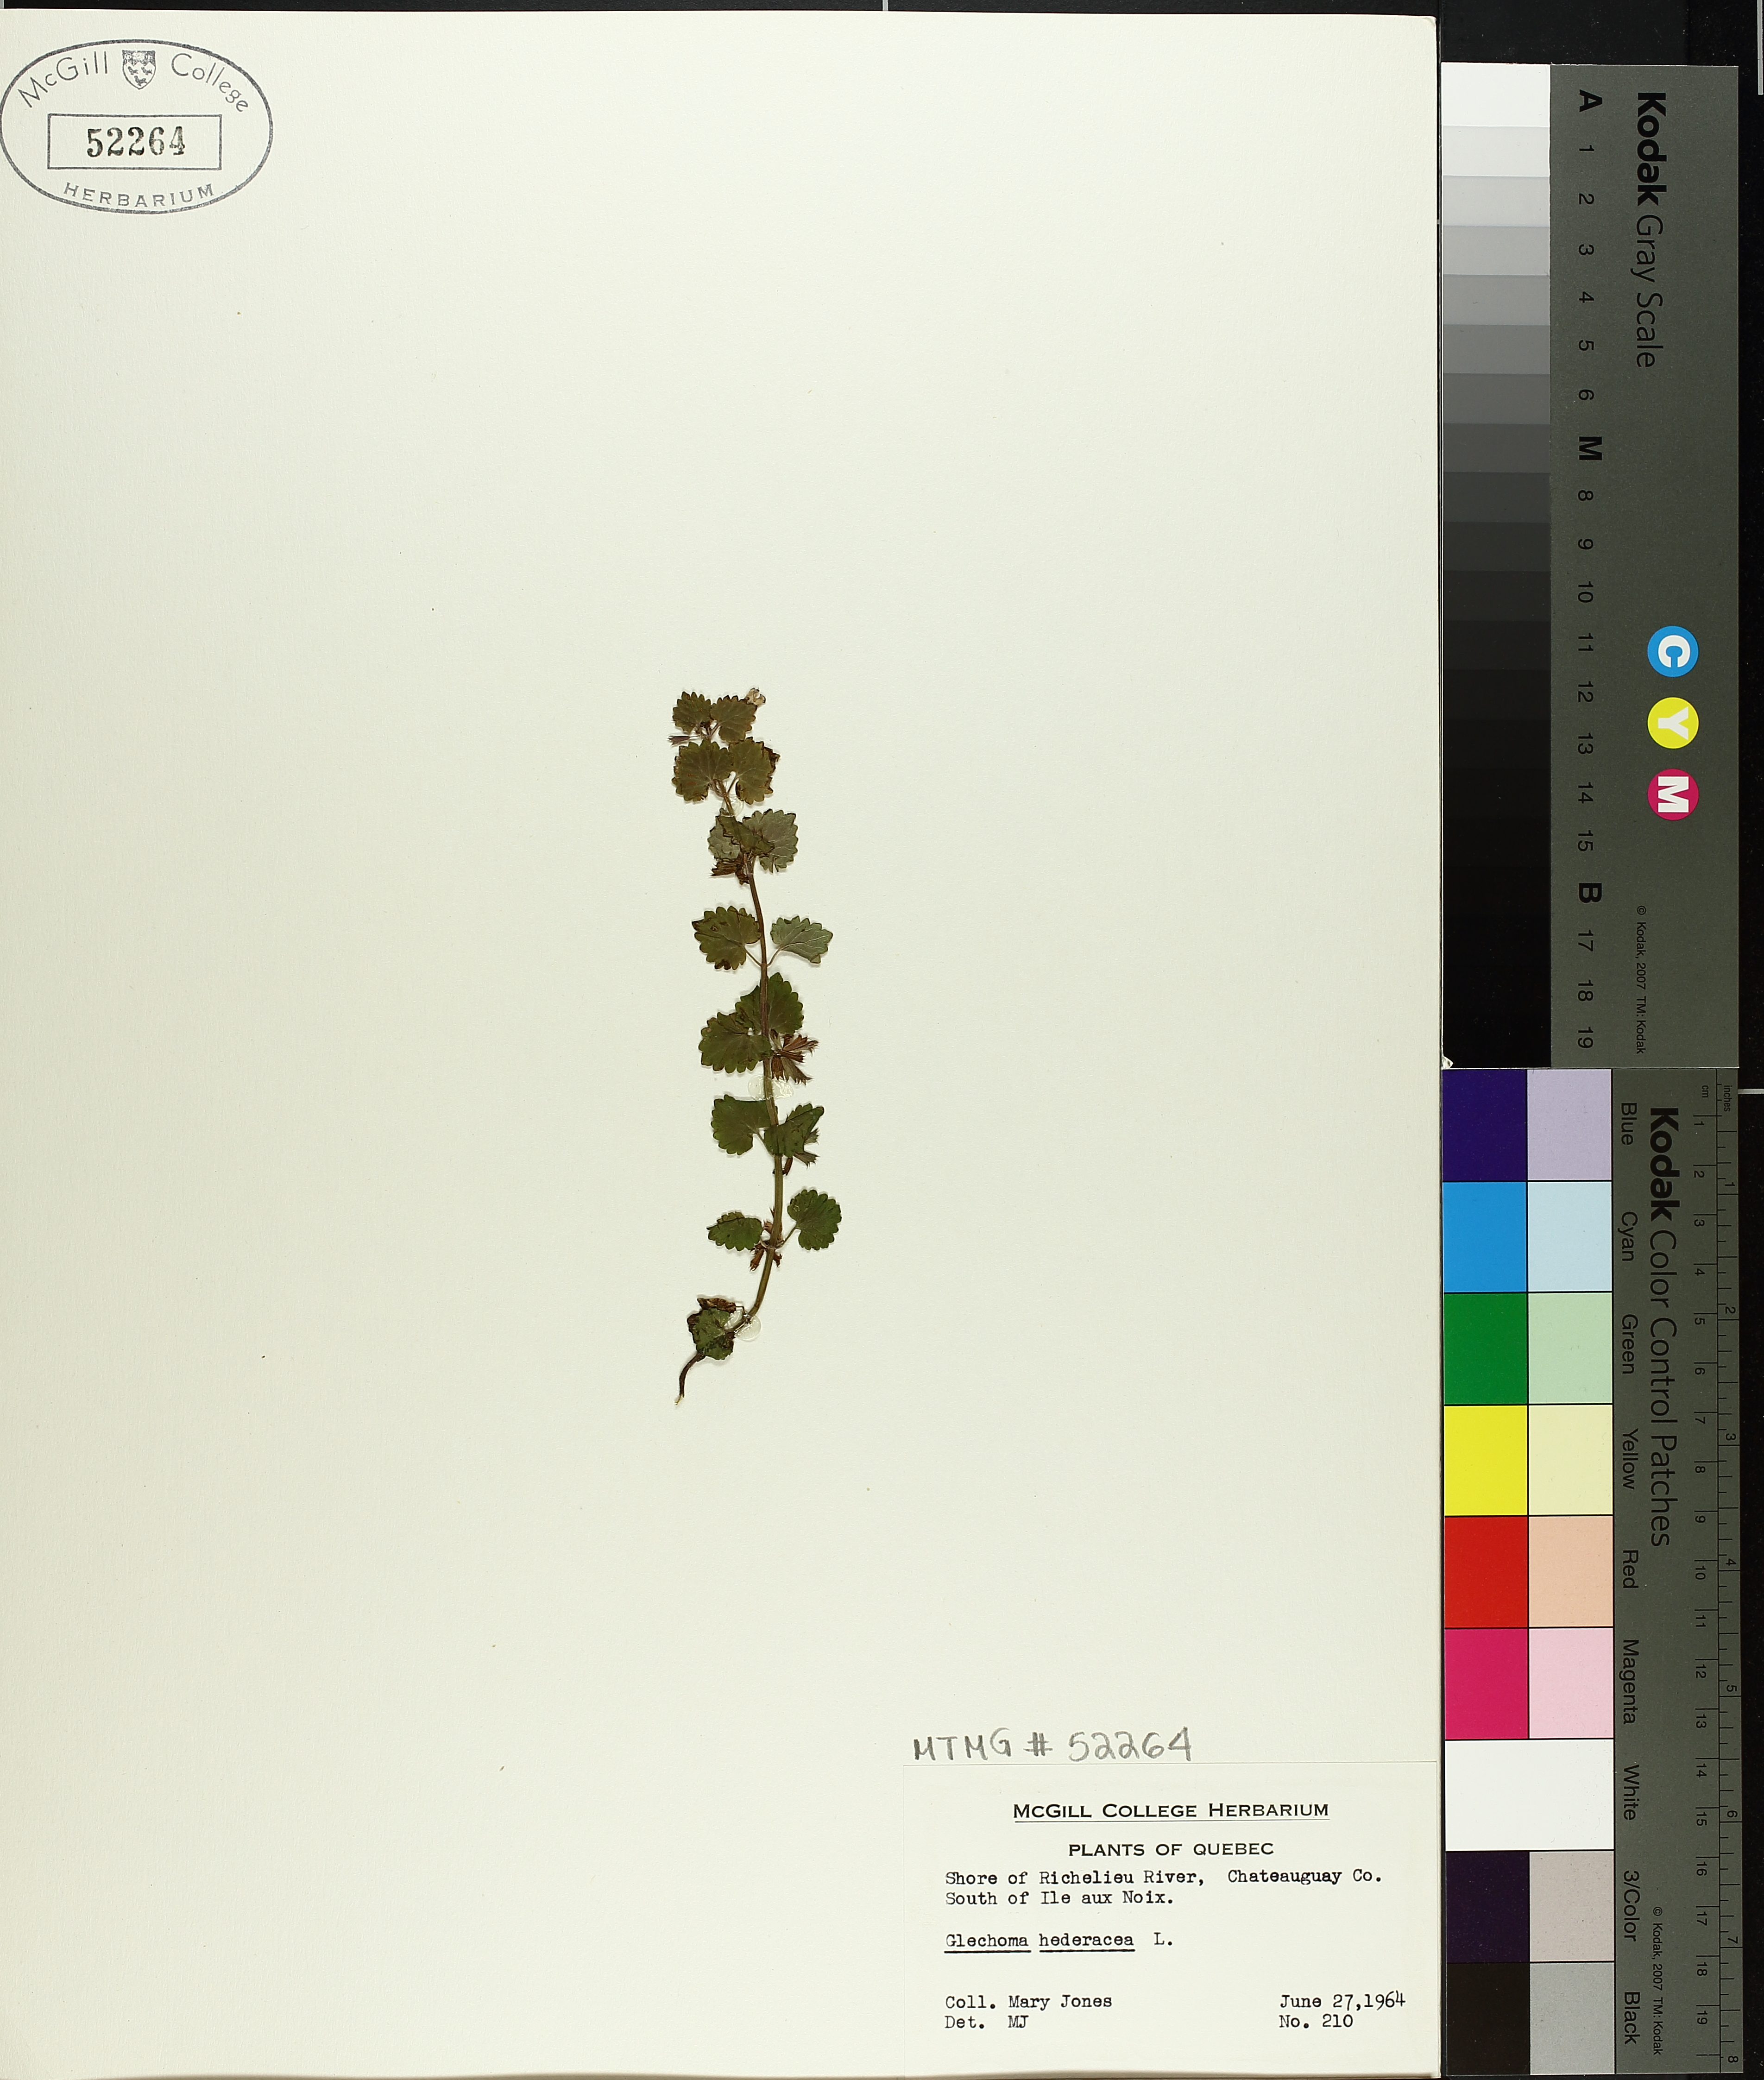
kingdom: Plantae
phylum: Tracheophyta
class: Magnoliopsida
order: Lamiales
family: Lamiaceae
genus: Glechoma
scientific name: Glechoma hederacea
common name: Ground ivy
